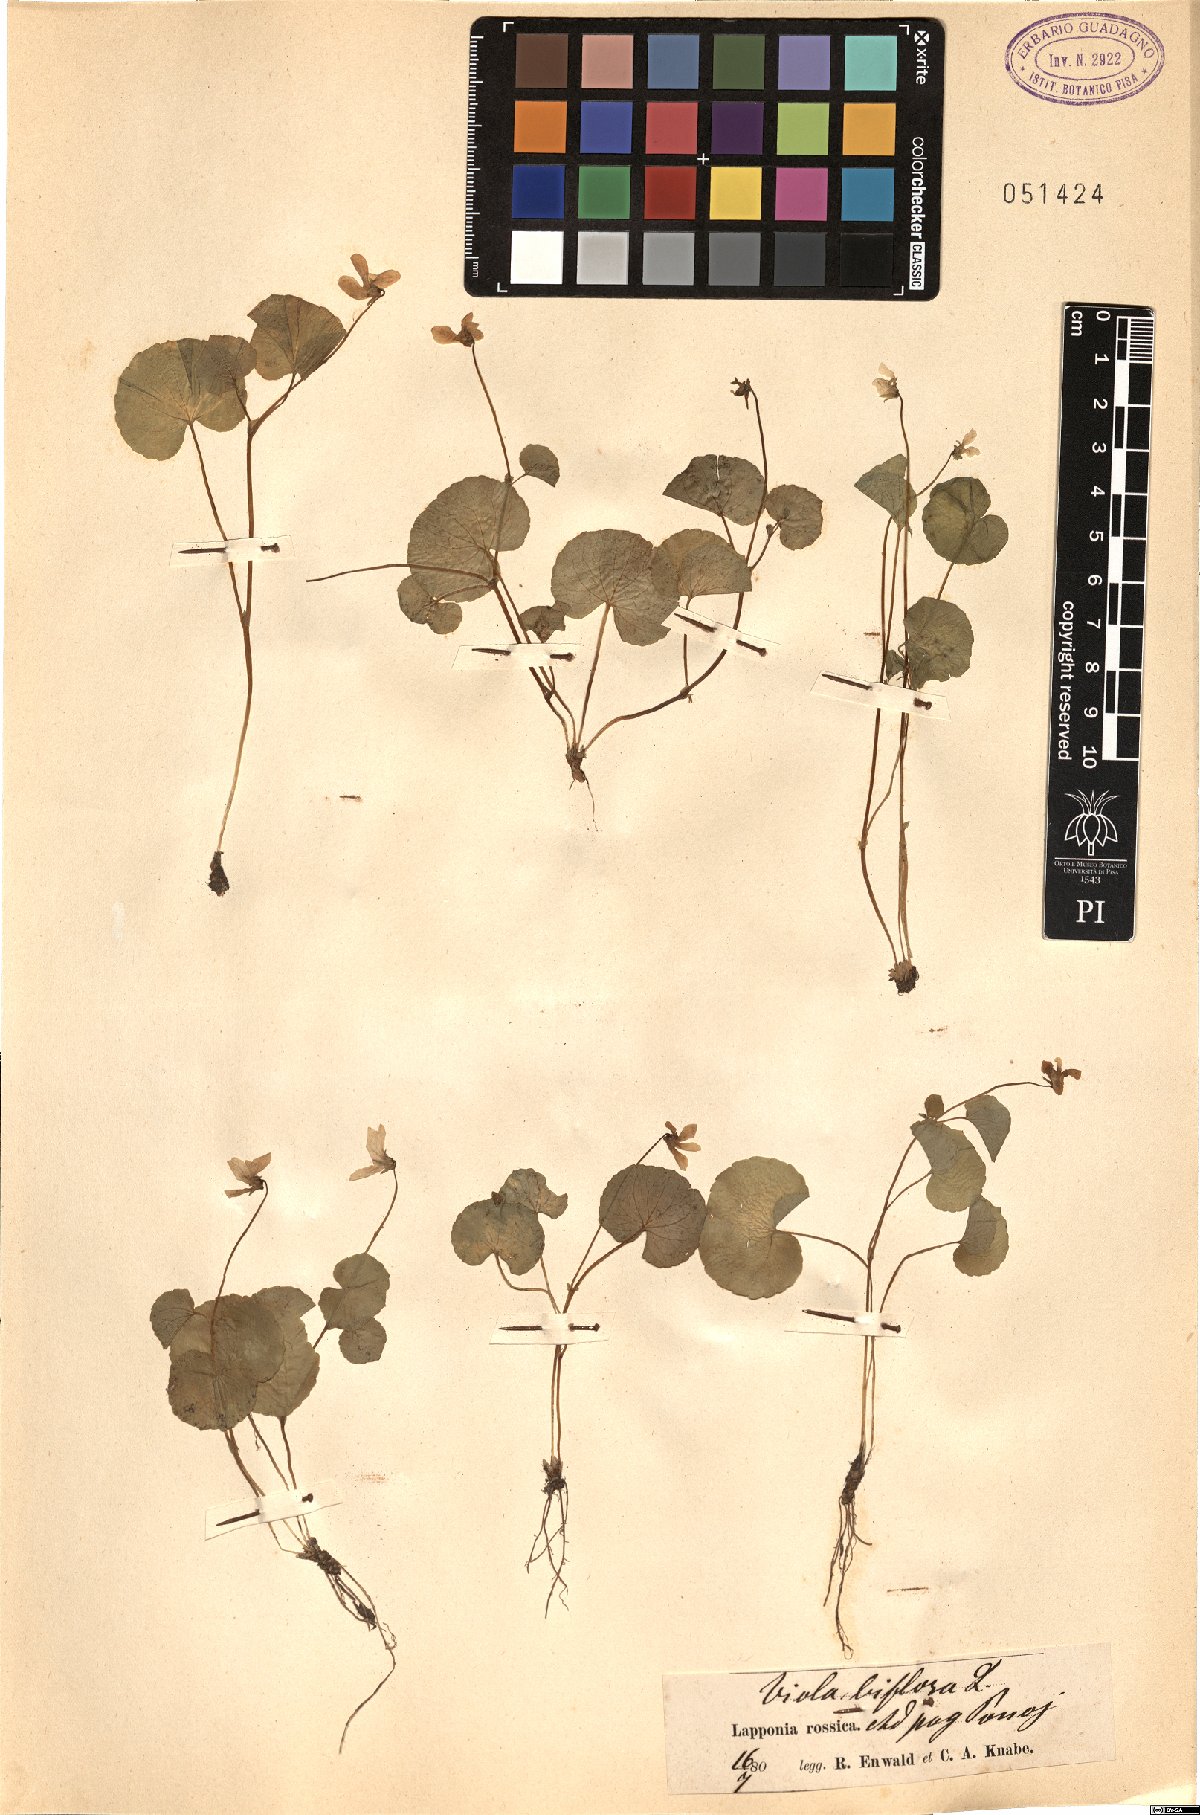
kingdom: Plantae
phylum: Tracheophyta
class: Magnoliopsida
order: Malpighiales
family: Violaceae
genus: Viola
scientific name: Viola biflora
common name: Alpine yellow violet
